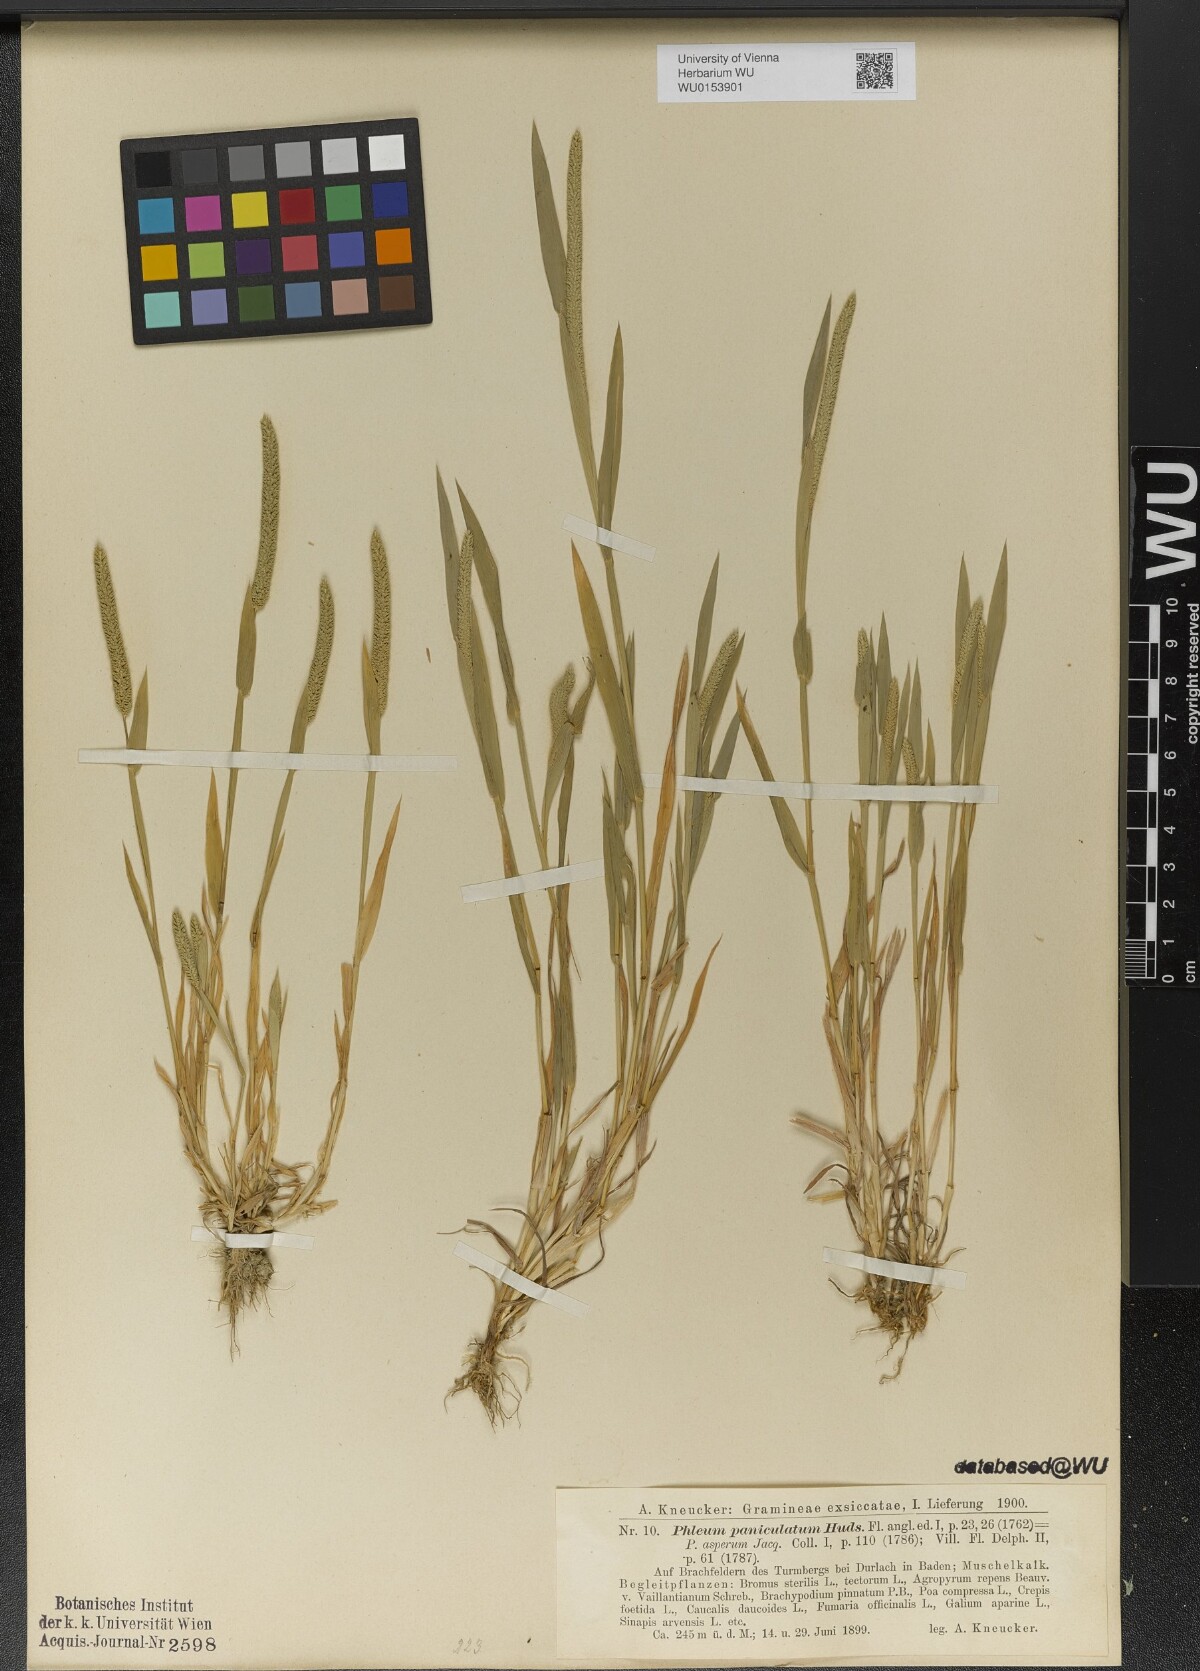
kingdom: Plantae
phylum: Tracheophyta
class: Liliopsida
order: Poales
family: Poaceae
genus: Phleum
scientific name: Phleum paniculatum
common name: British timothy
